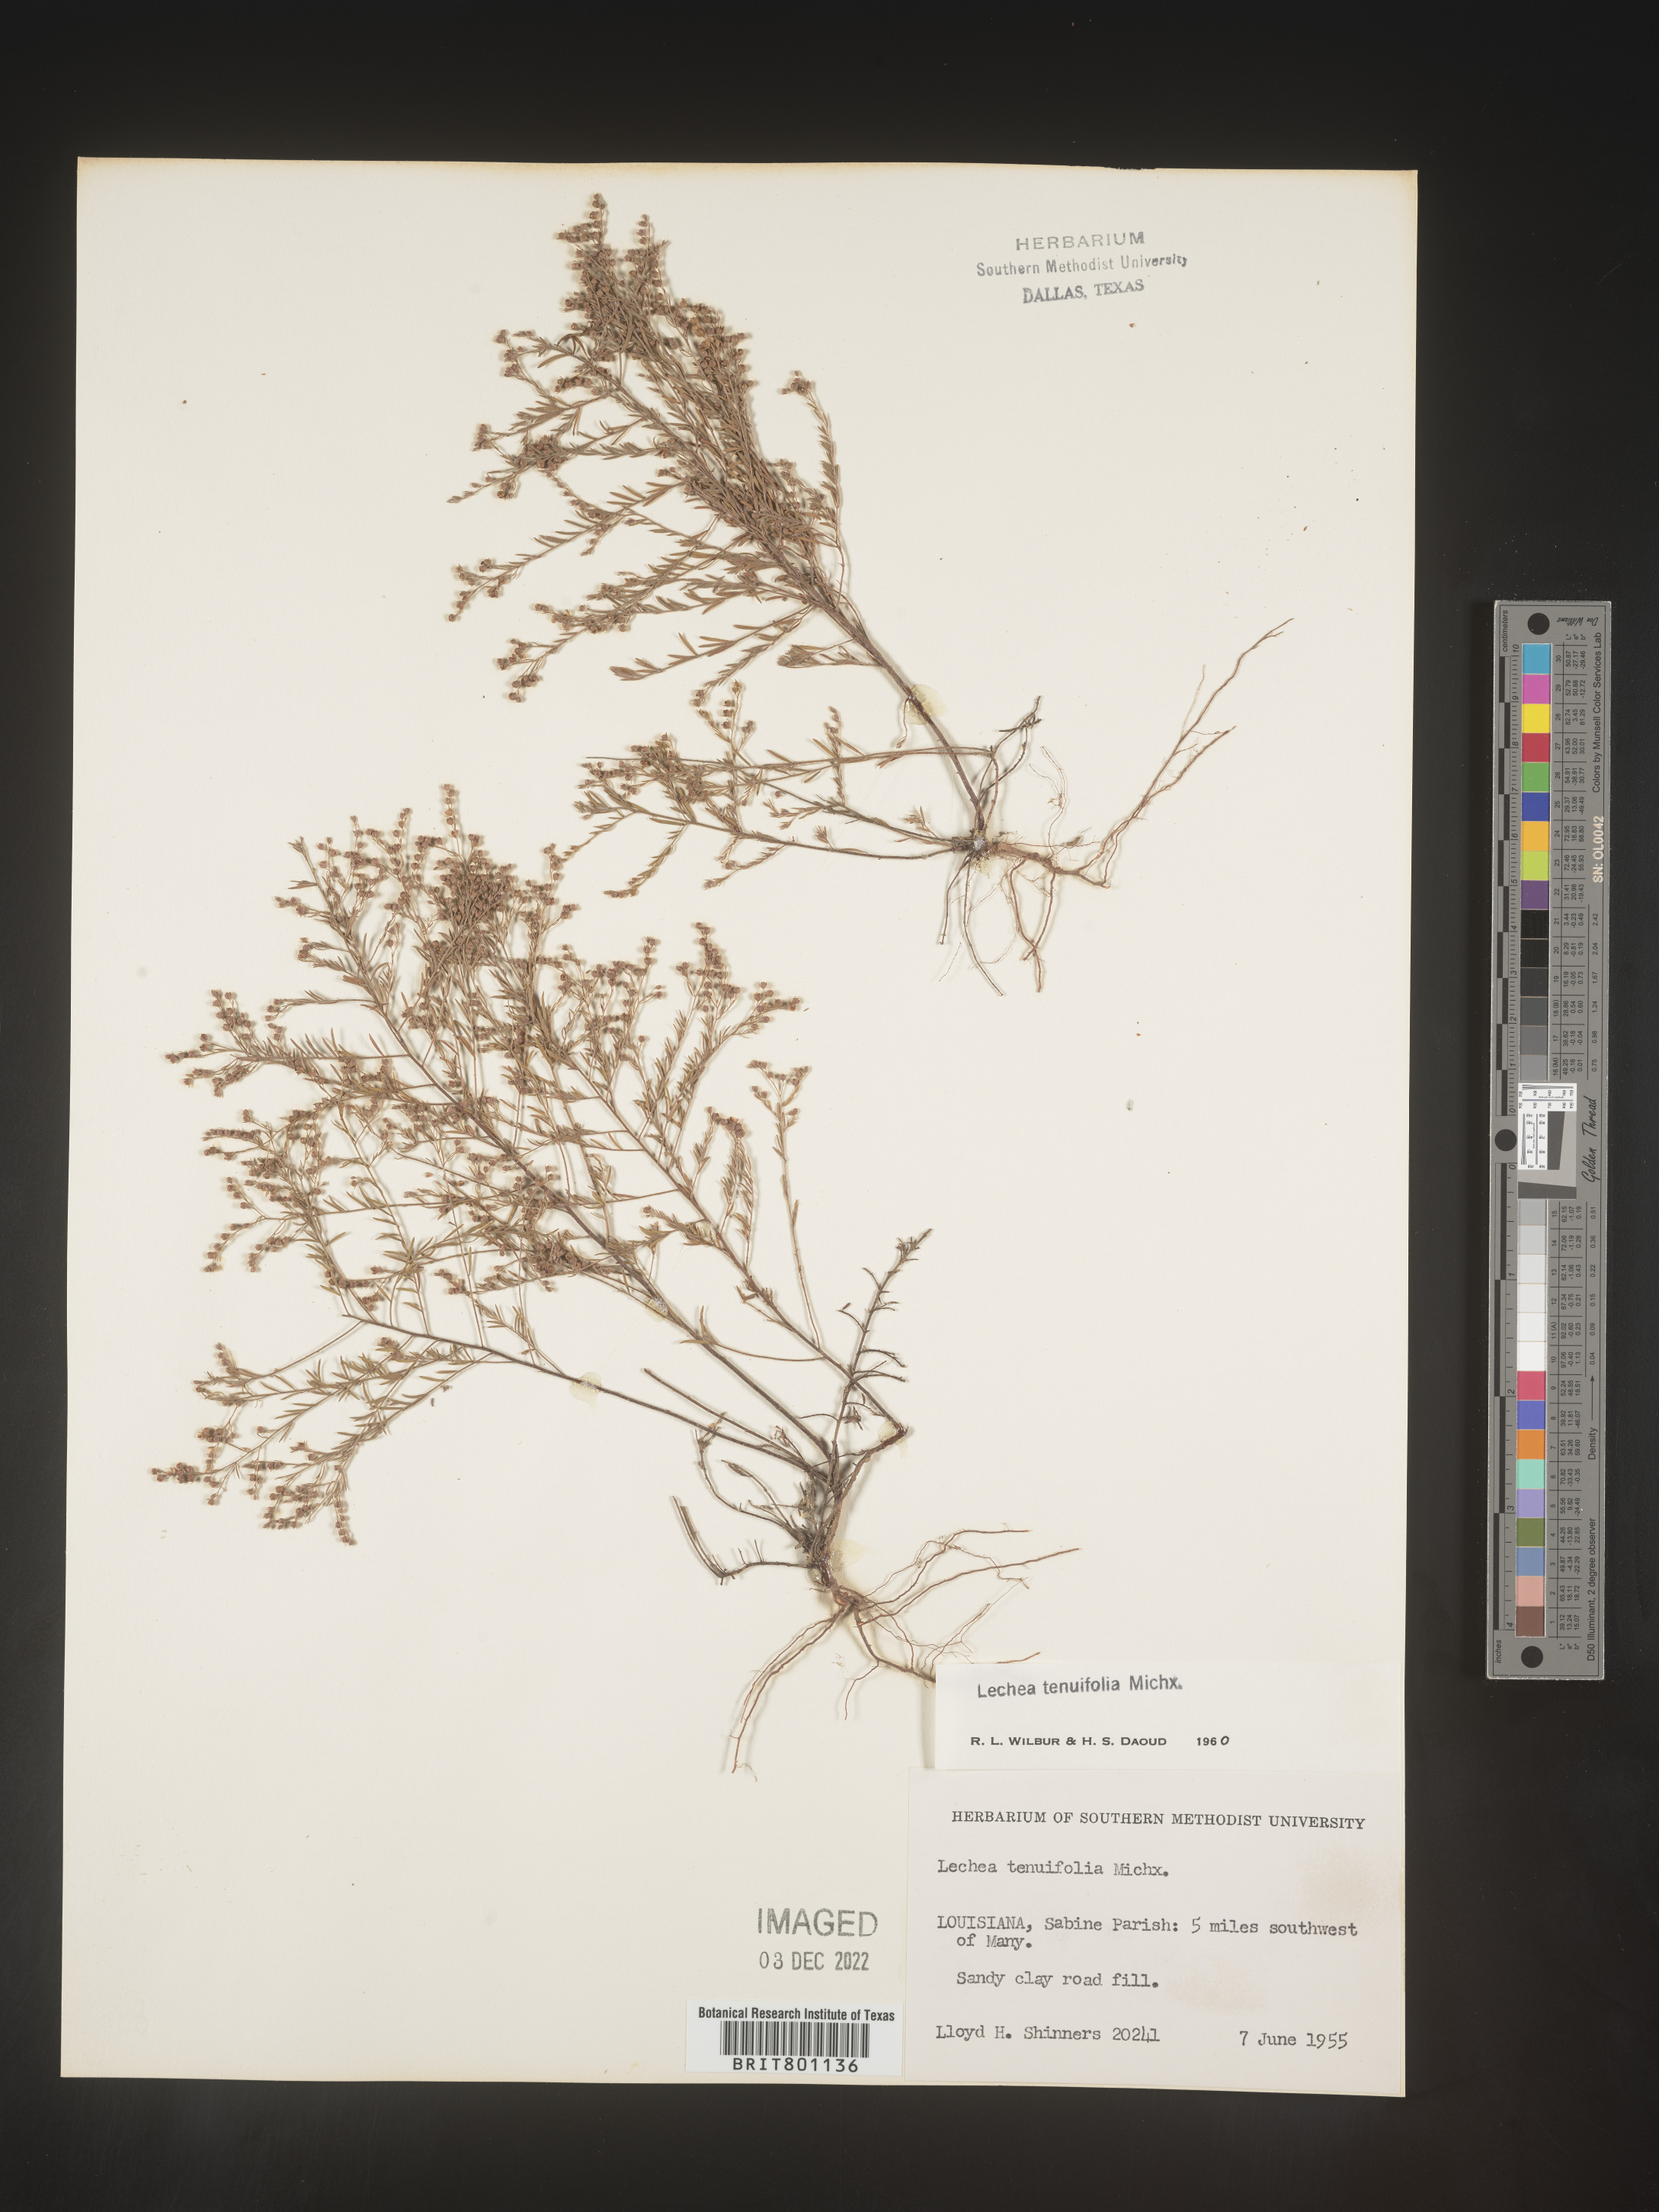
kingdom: Plantae
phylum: Tracheophyta
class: Magnoliopsida
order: Malvales
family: Cistaceae
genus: Lechea
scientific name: Lechea tenuifolia
